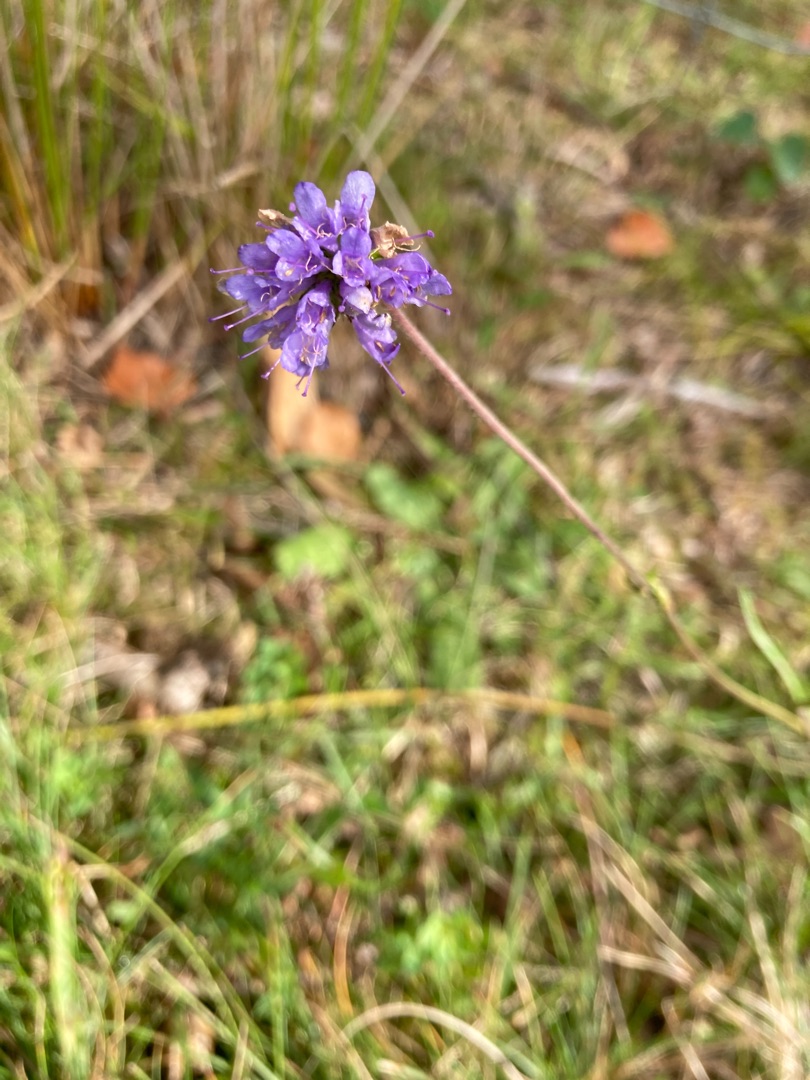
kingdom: Plantae
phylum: Tracheophyta
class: Magnoliopsida
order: Dipsacales
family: Caprifoliaceae
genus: Succisa
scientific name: Succisa pratensis
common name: Djævelsbid
